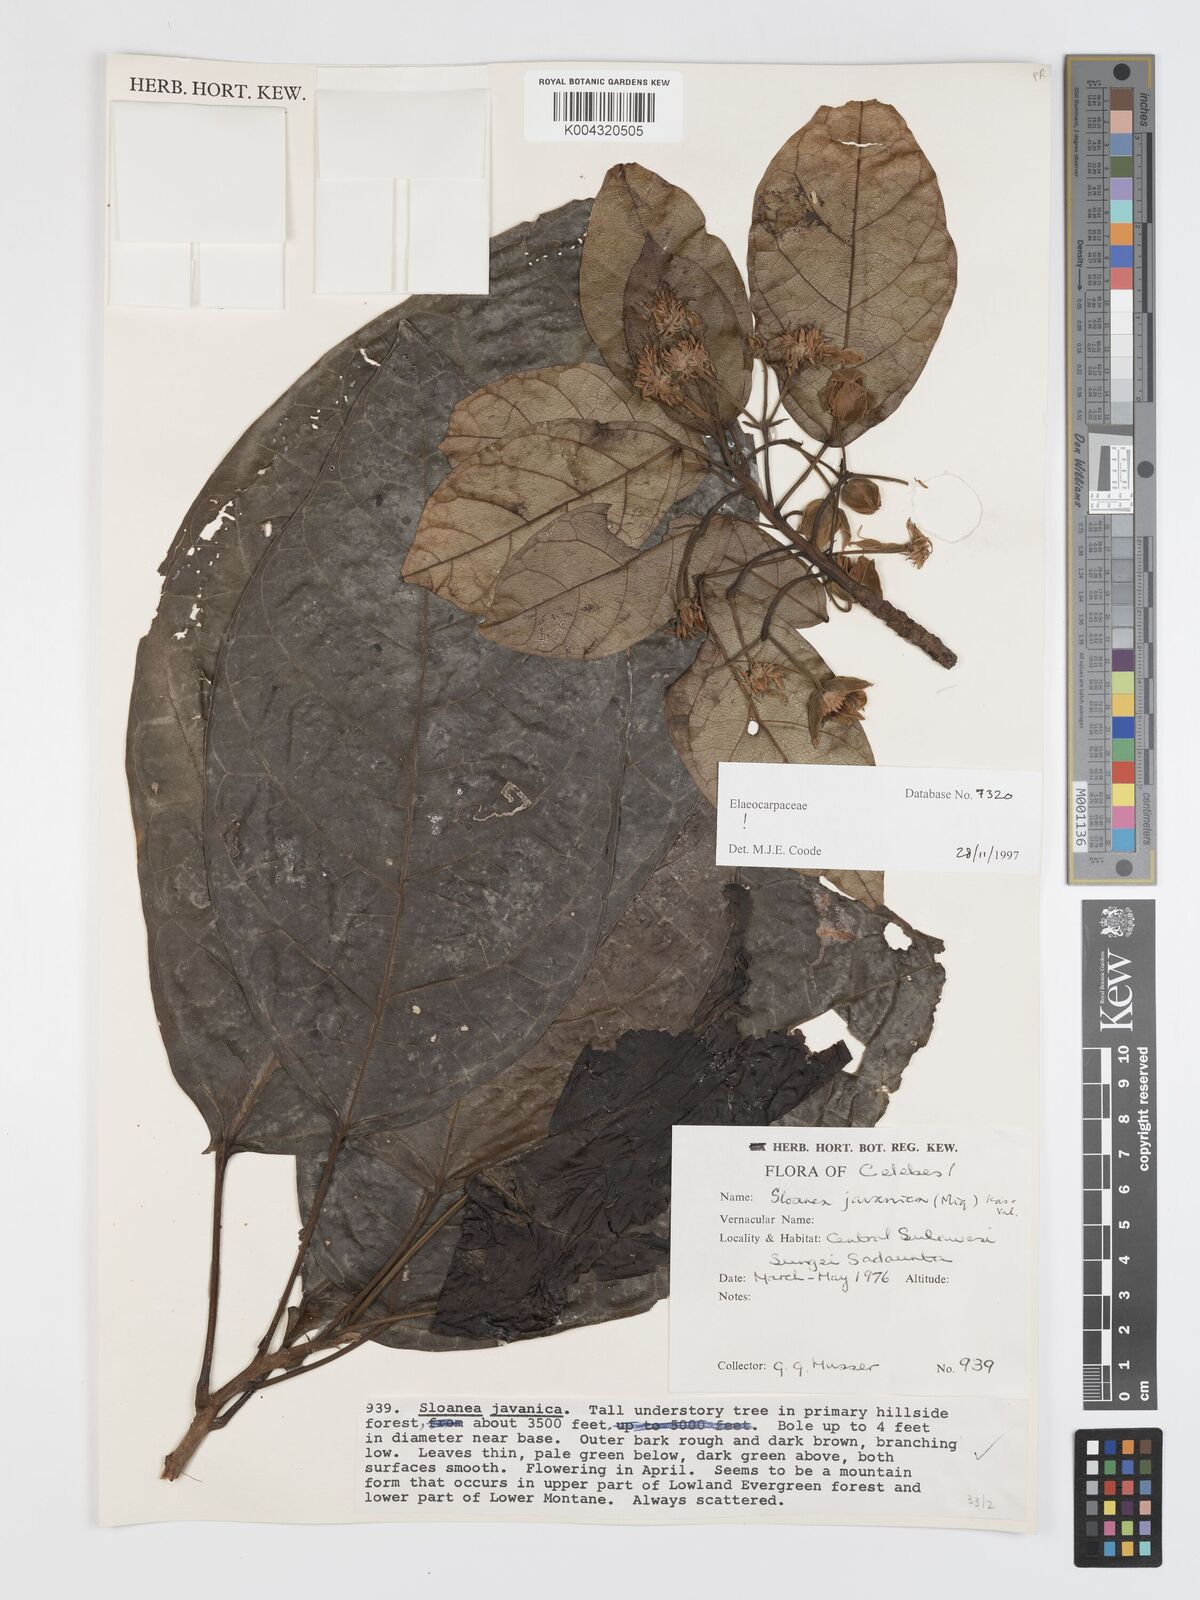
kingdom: Plantae
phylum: Tracheophyta
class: Magnoliopsida
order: Oxalidales
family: Elaeocarpaceae
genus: Sloanea
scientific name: Sloanea javanica
